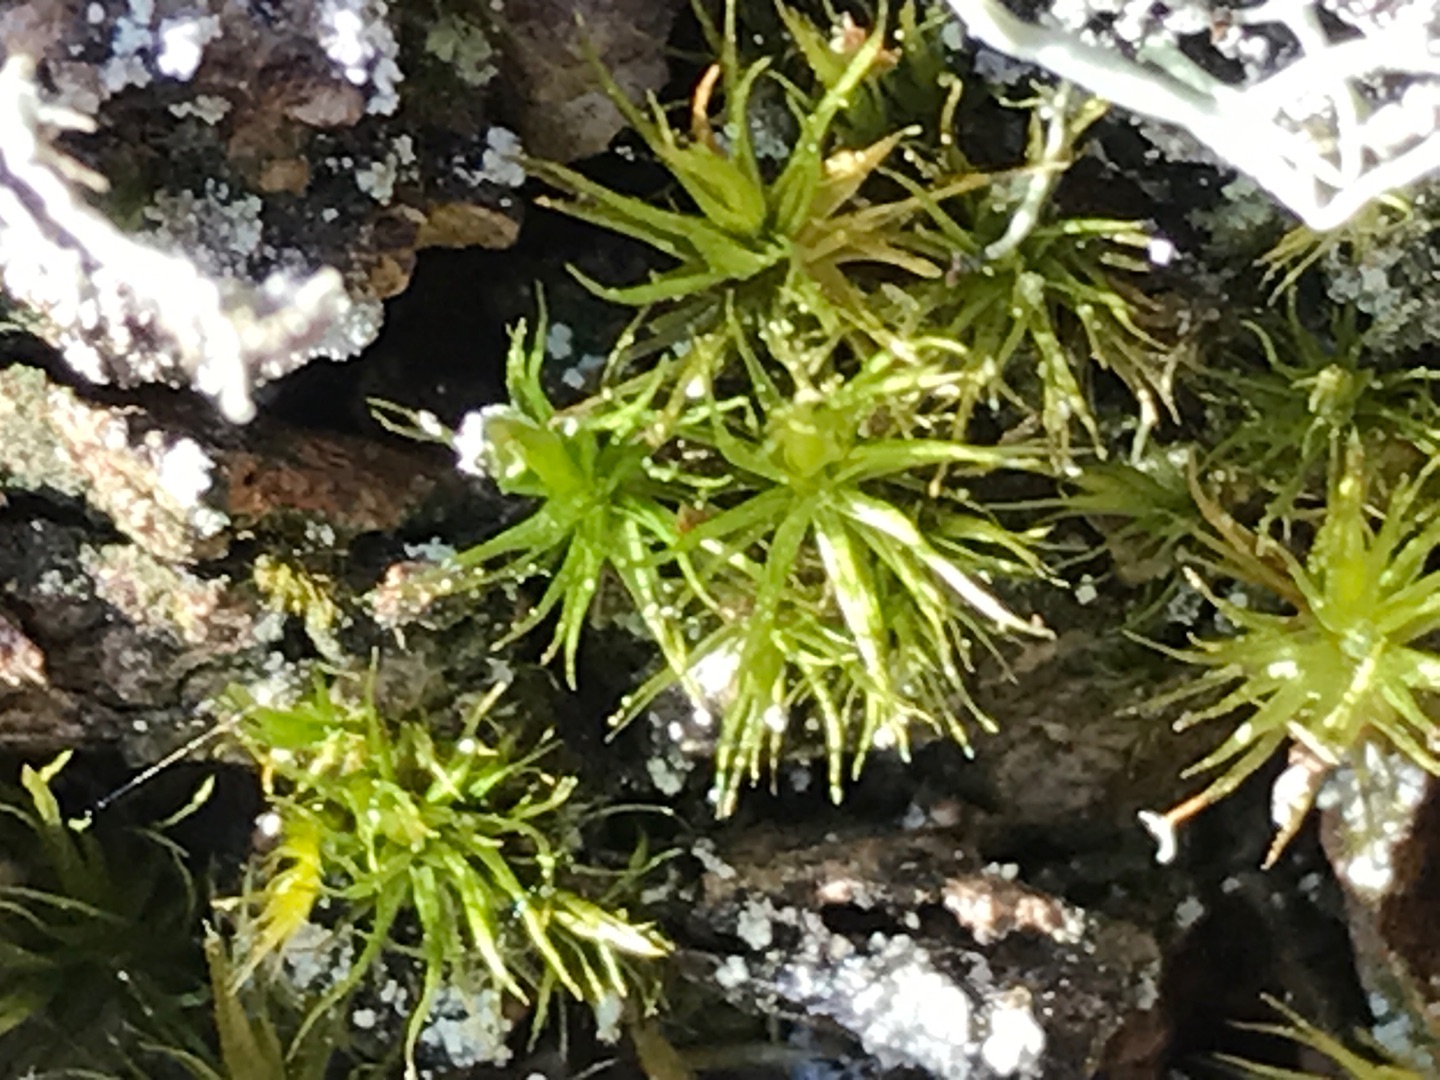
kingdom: Plantae
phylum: Bryophyta
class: Bryopsida
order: Dicranales
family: Dicranaceae
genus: Dicranum
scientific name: Dicranum
